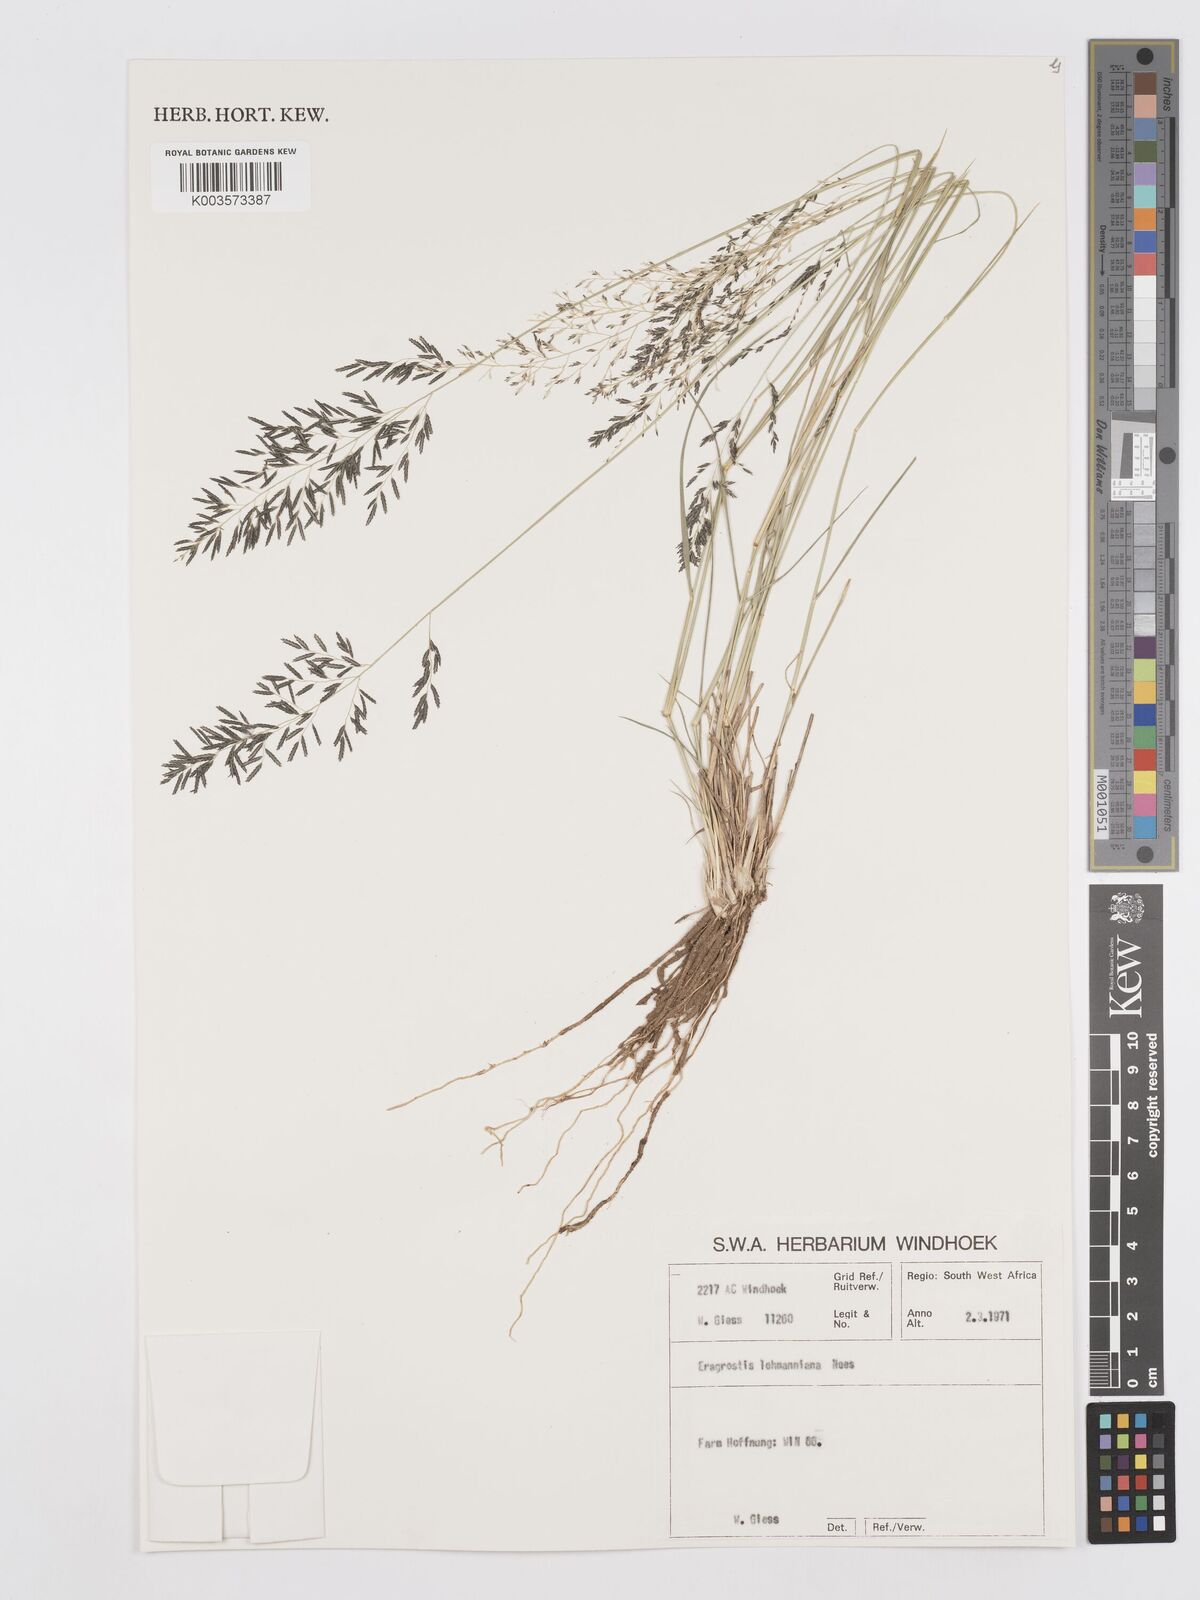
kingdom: Plantae
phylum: Tracheophyta
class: Liliopsida
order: Poales
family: Poaceae
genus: Eragrostis
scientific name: Eragrostis lehmanniana
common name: Lehmann lovegrass
